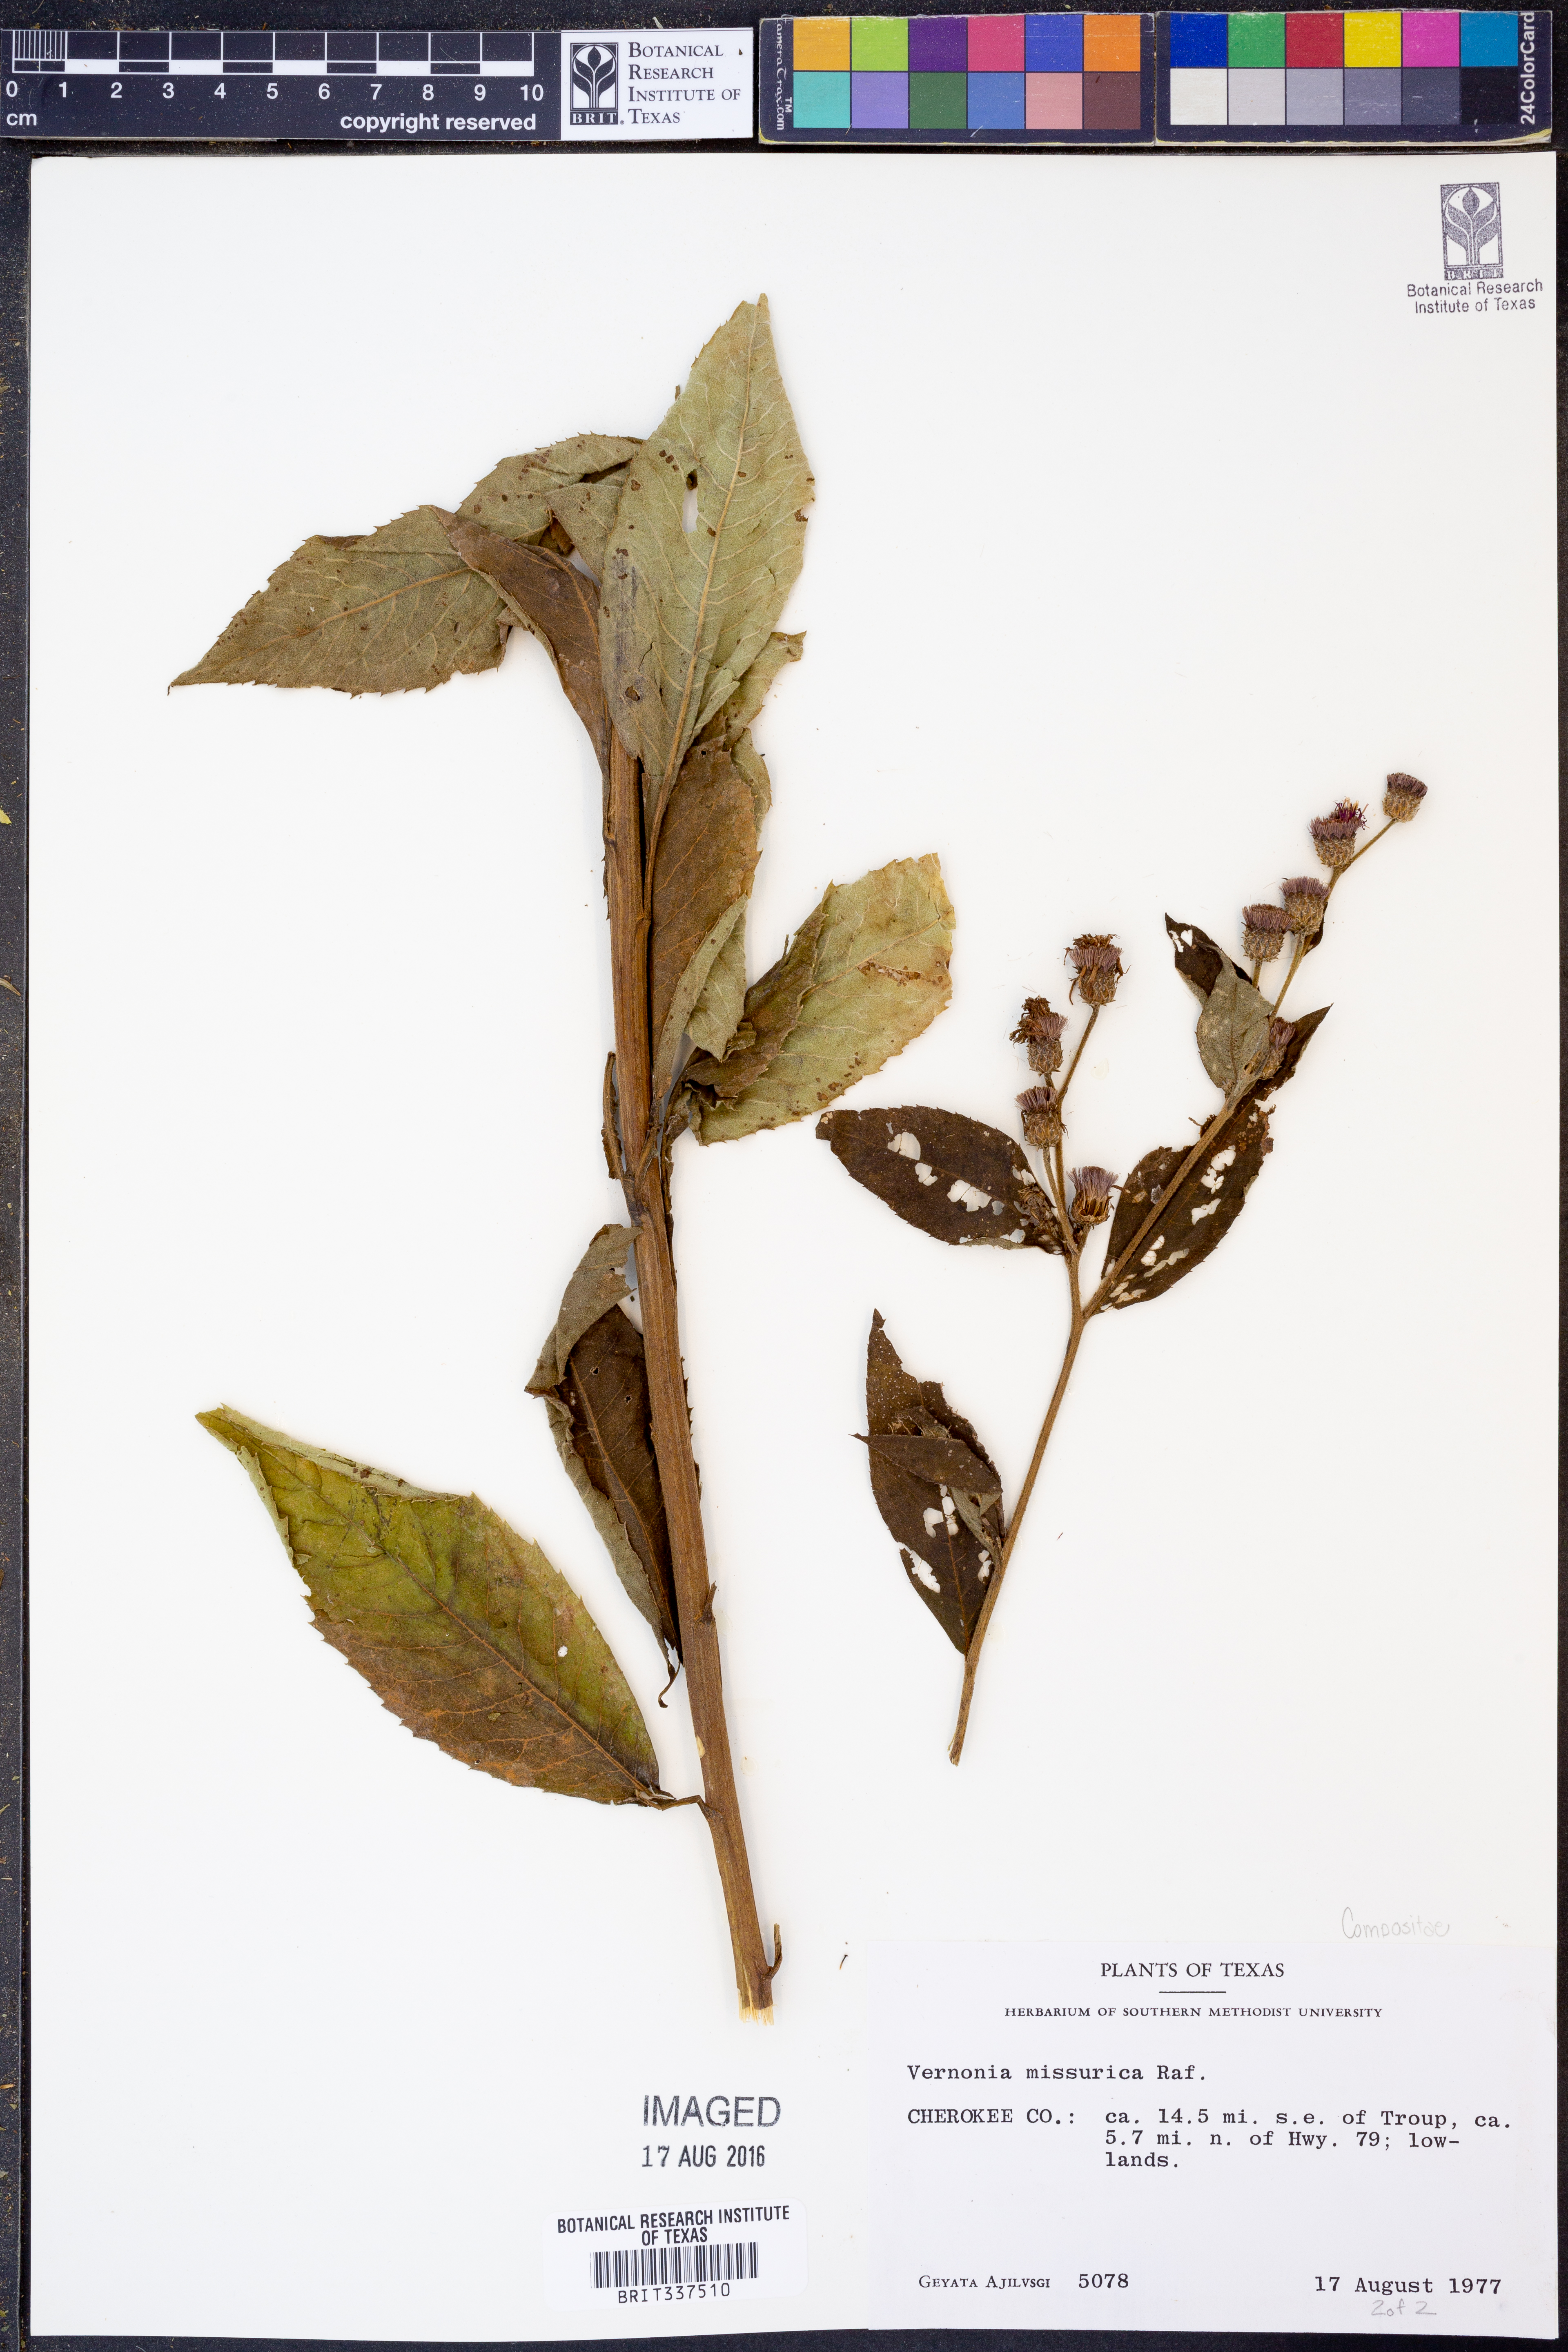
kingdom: Plantae
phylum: Tracheophyta
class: Magnoliopsida
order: Asterales
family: Asteraceae
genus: Vernonia
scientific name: Vernonia missurica
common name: Missouri ironweed
